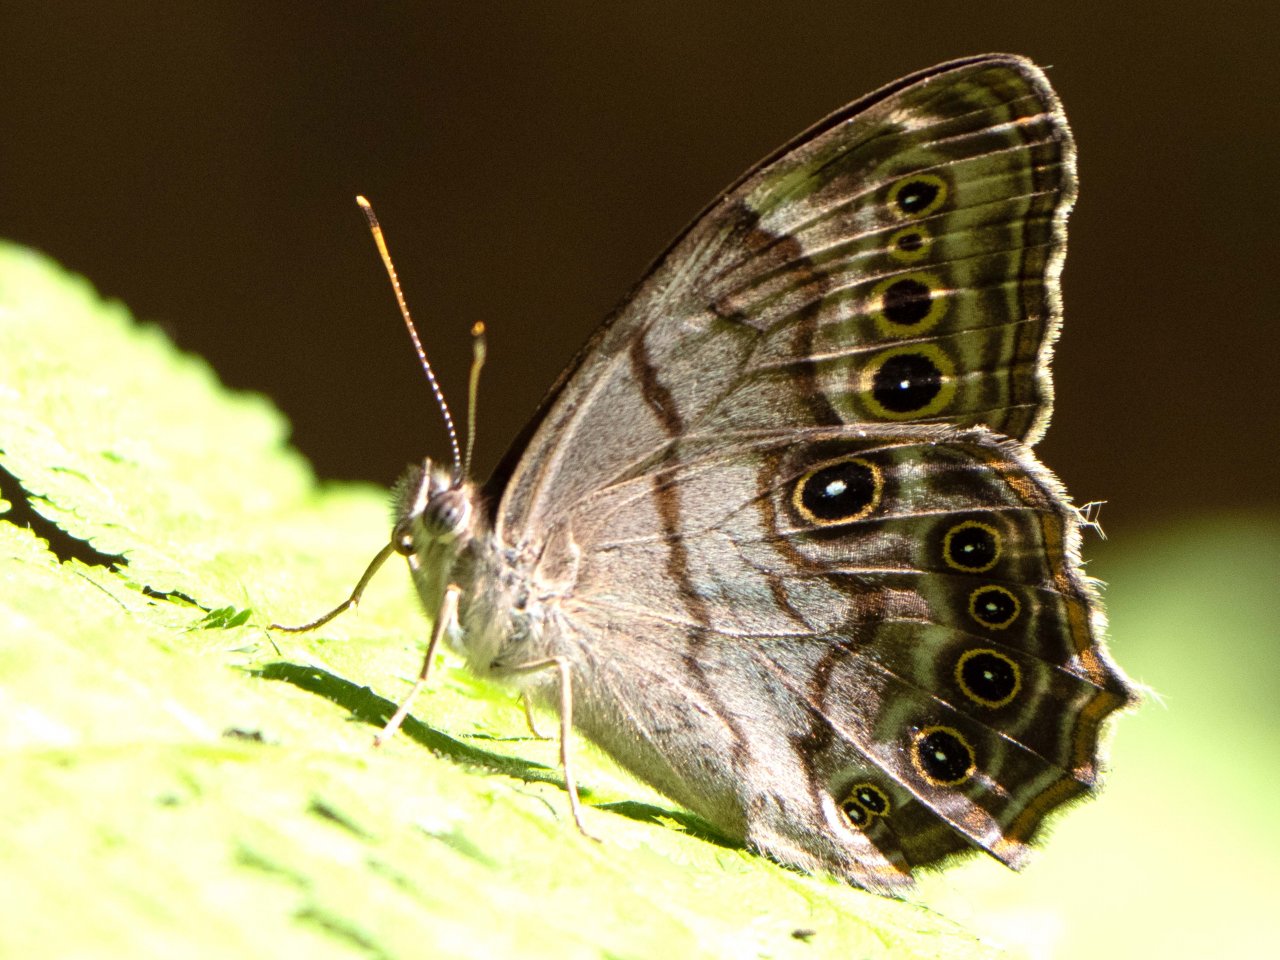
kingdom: Animalia
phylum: Arthropoda
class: Insecta
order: Lepidoptera
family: Nymphalidae
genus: Lethe
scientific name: Lethe anthedon
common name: Northern Pearly-Eye
